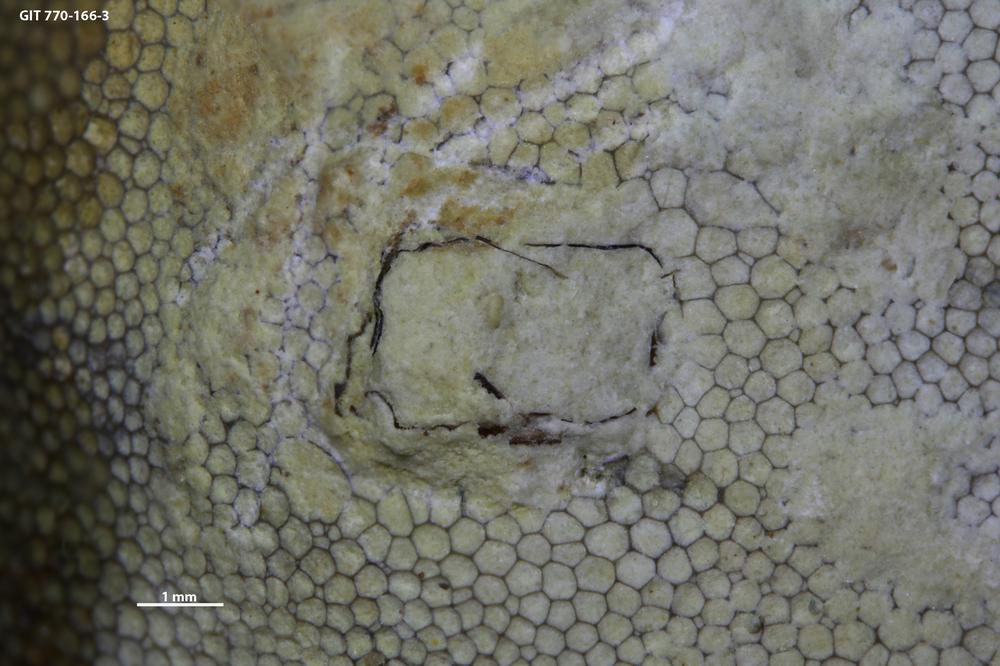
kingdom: Animalia
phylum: Cnidaria
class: Scyphozoa
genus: Climacoconus
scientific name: Climacoconus
